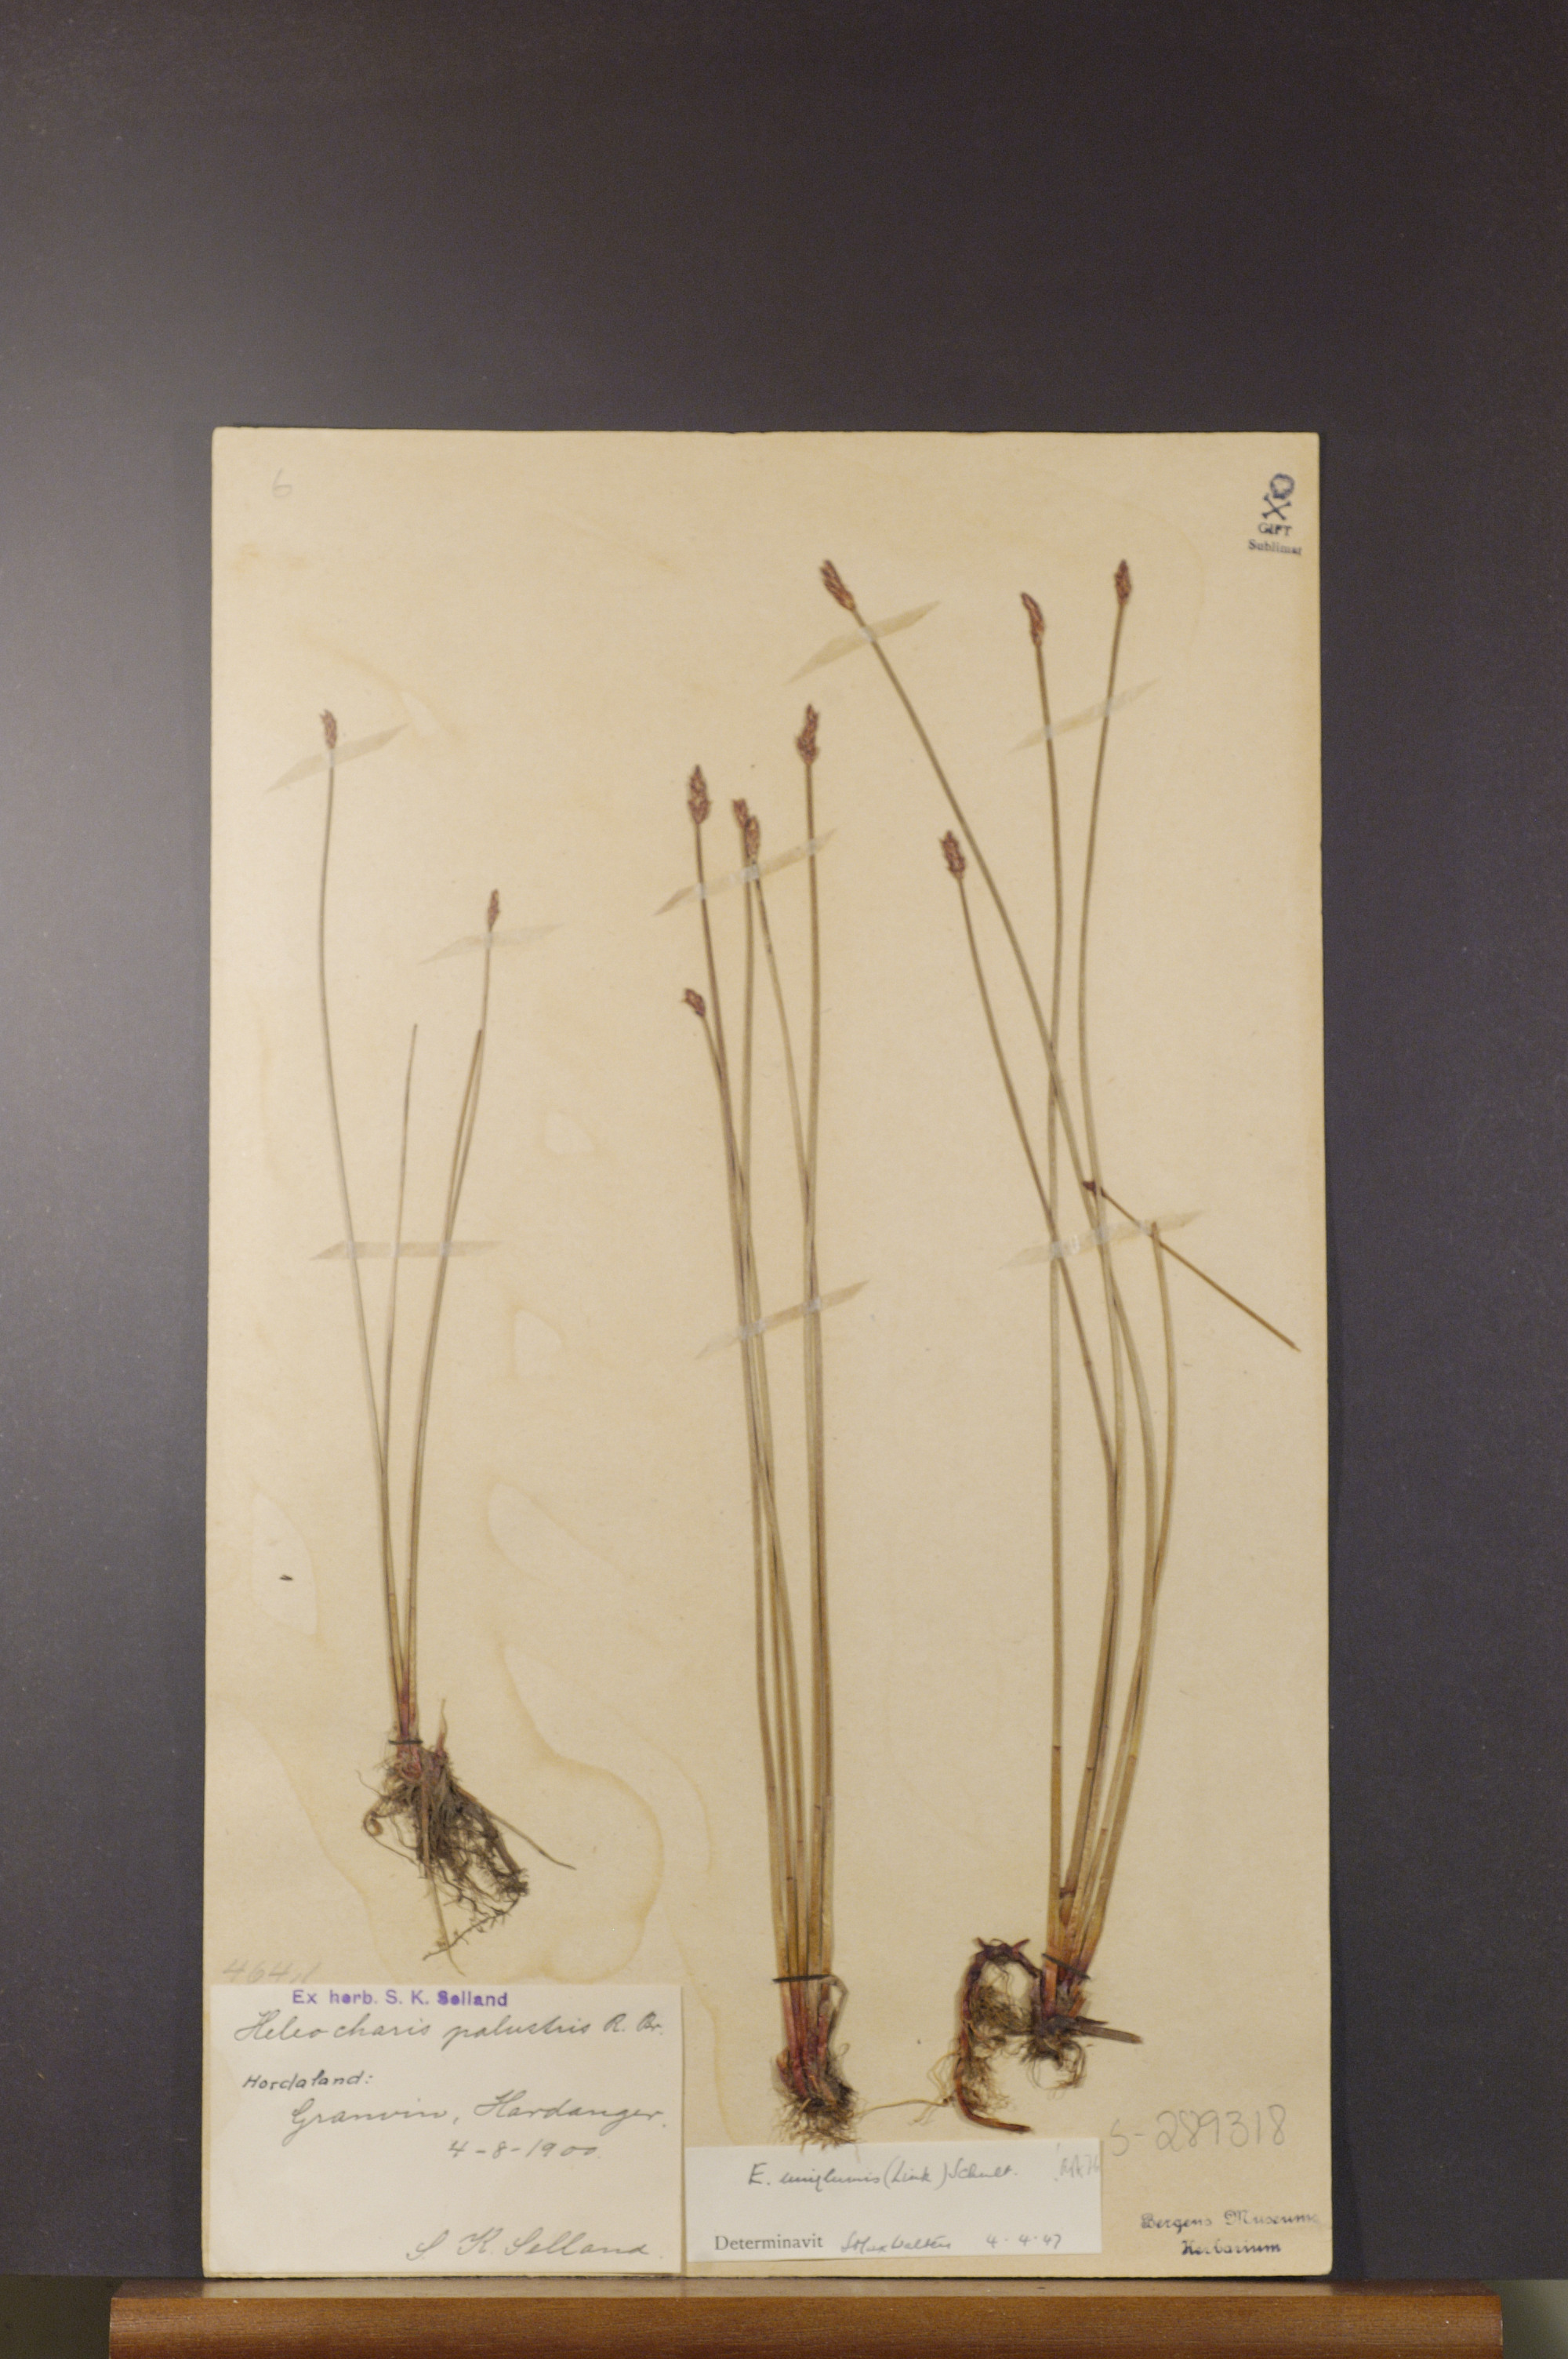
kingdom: Plantae
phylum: Tracheophyta
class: Liliopsida
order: Poales
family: Cyperaceae
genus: Eleocharis
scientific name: Eleocharis uniglumis
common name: Slender spike-rush
